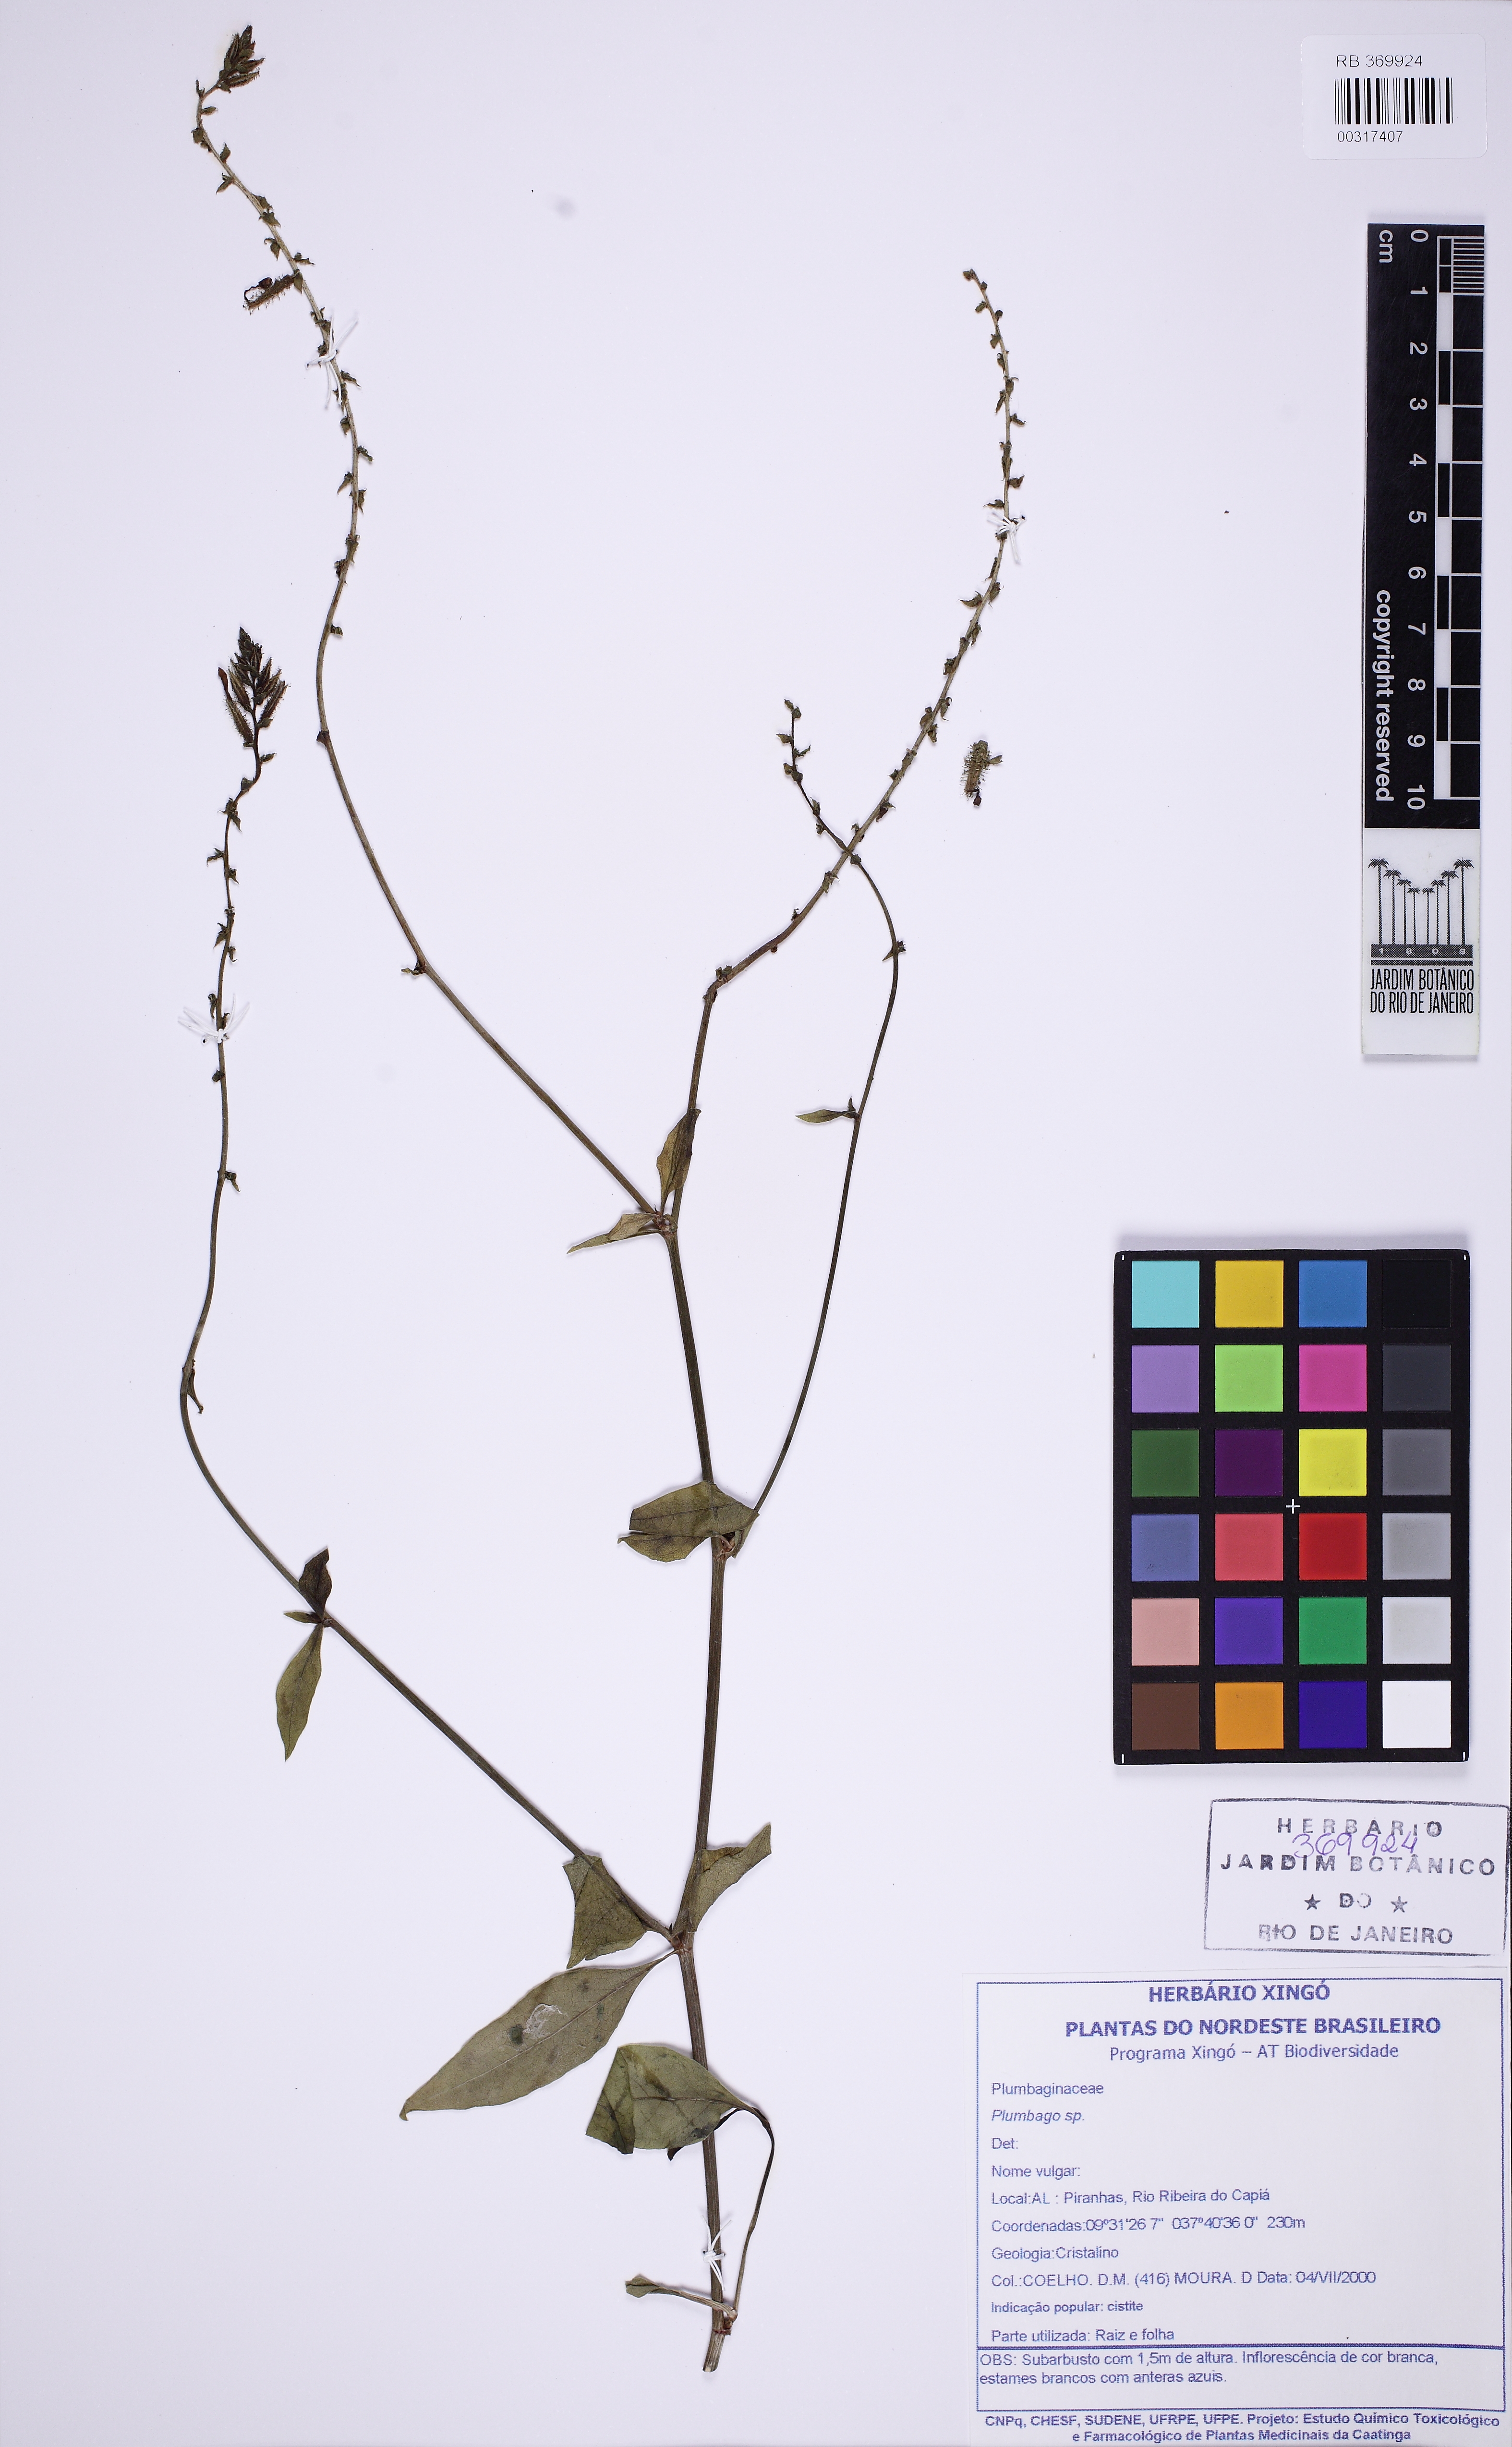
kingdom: Plantae
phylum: Tracheophyta
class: Magnoliopsida
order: Caryophyllales
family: Plumbaginaceae
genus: Plumbago
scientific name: Plumbago
